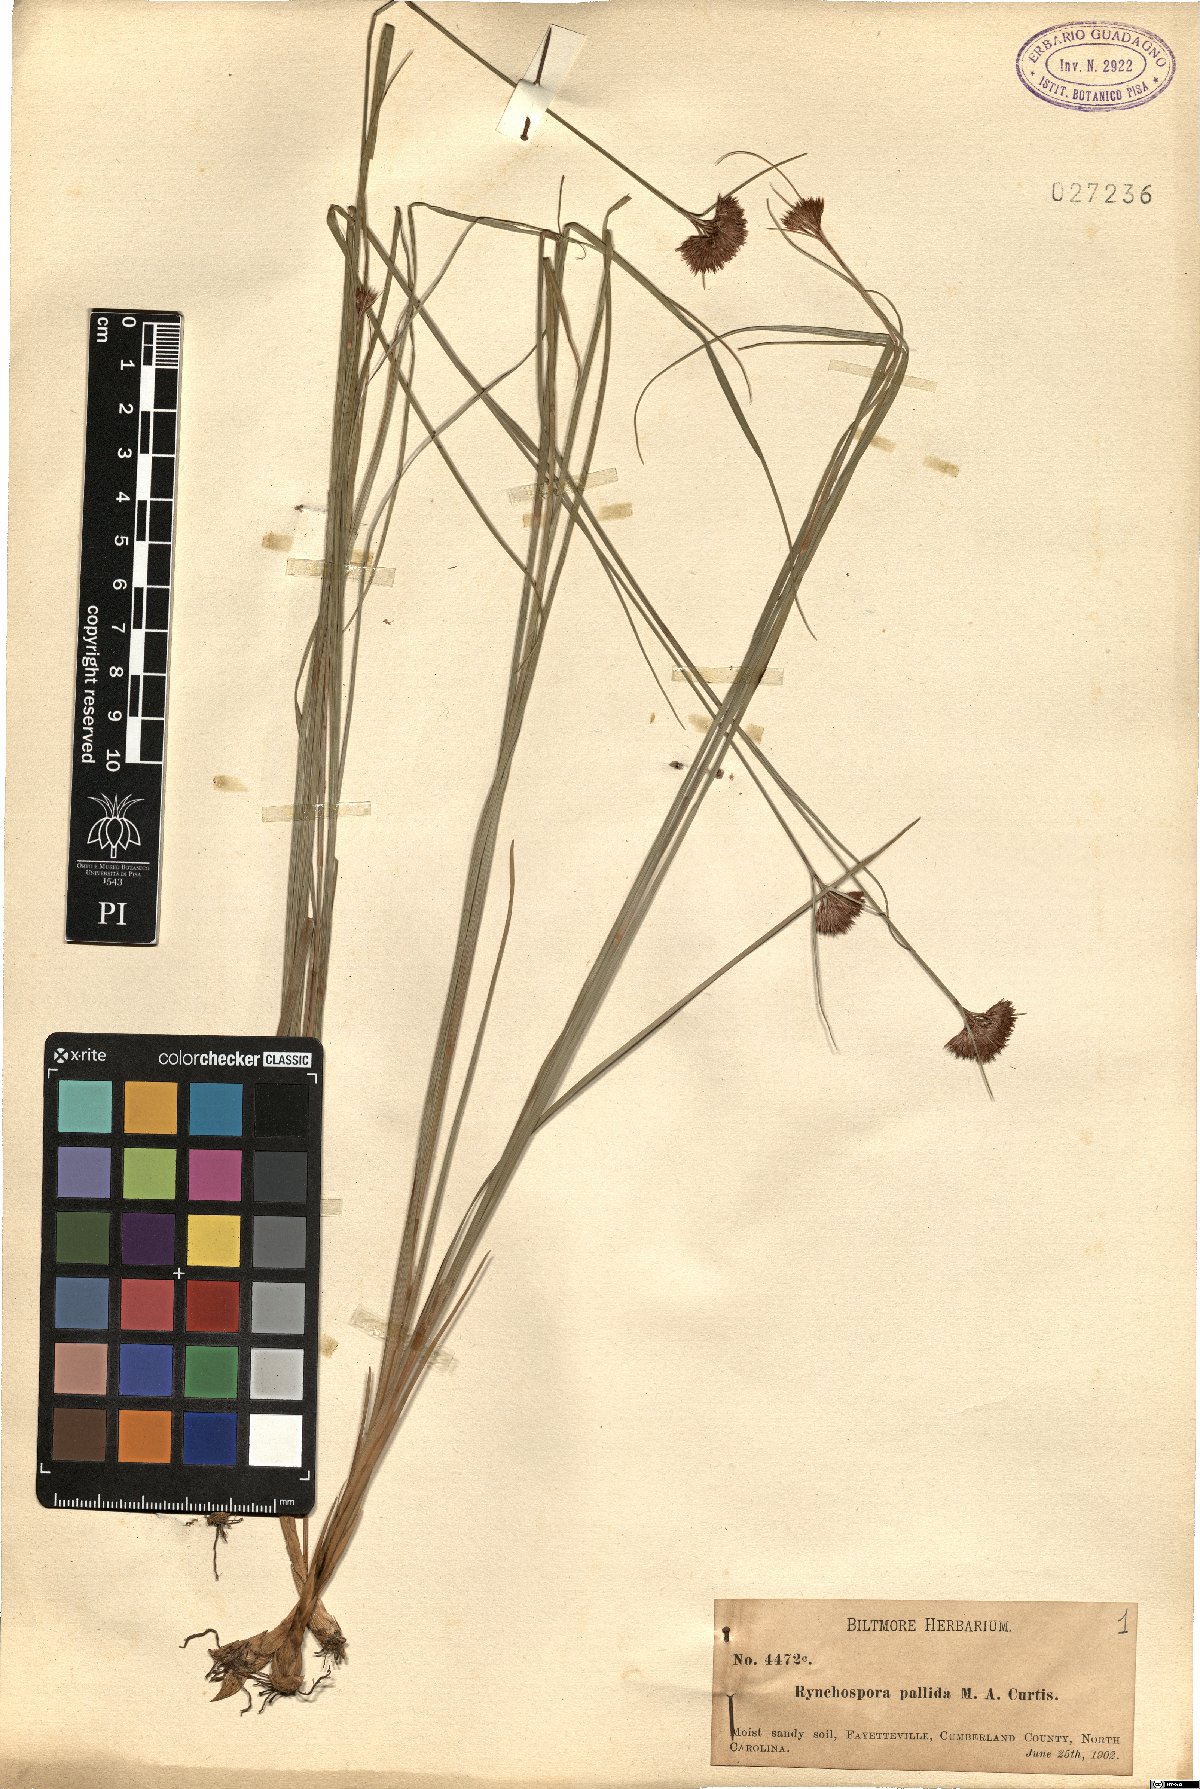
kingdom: Plantae
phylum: Tracheophyta
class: Liliopsida
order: Poales
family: Cyperaceae
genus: Rhynchospora
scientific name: Rhynchospora pallida
